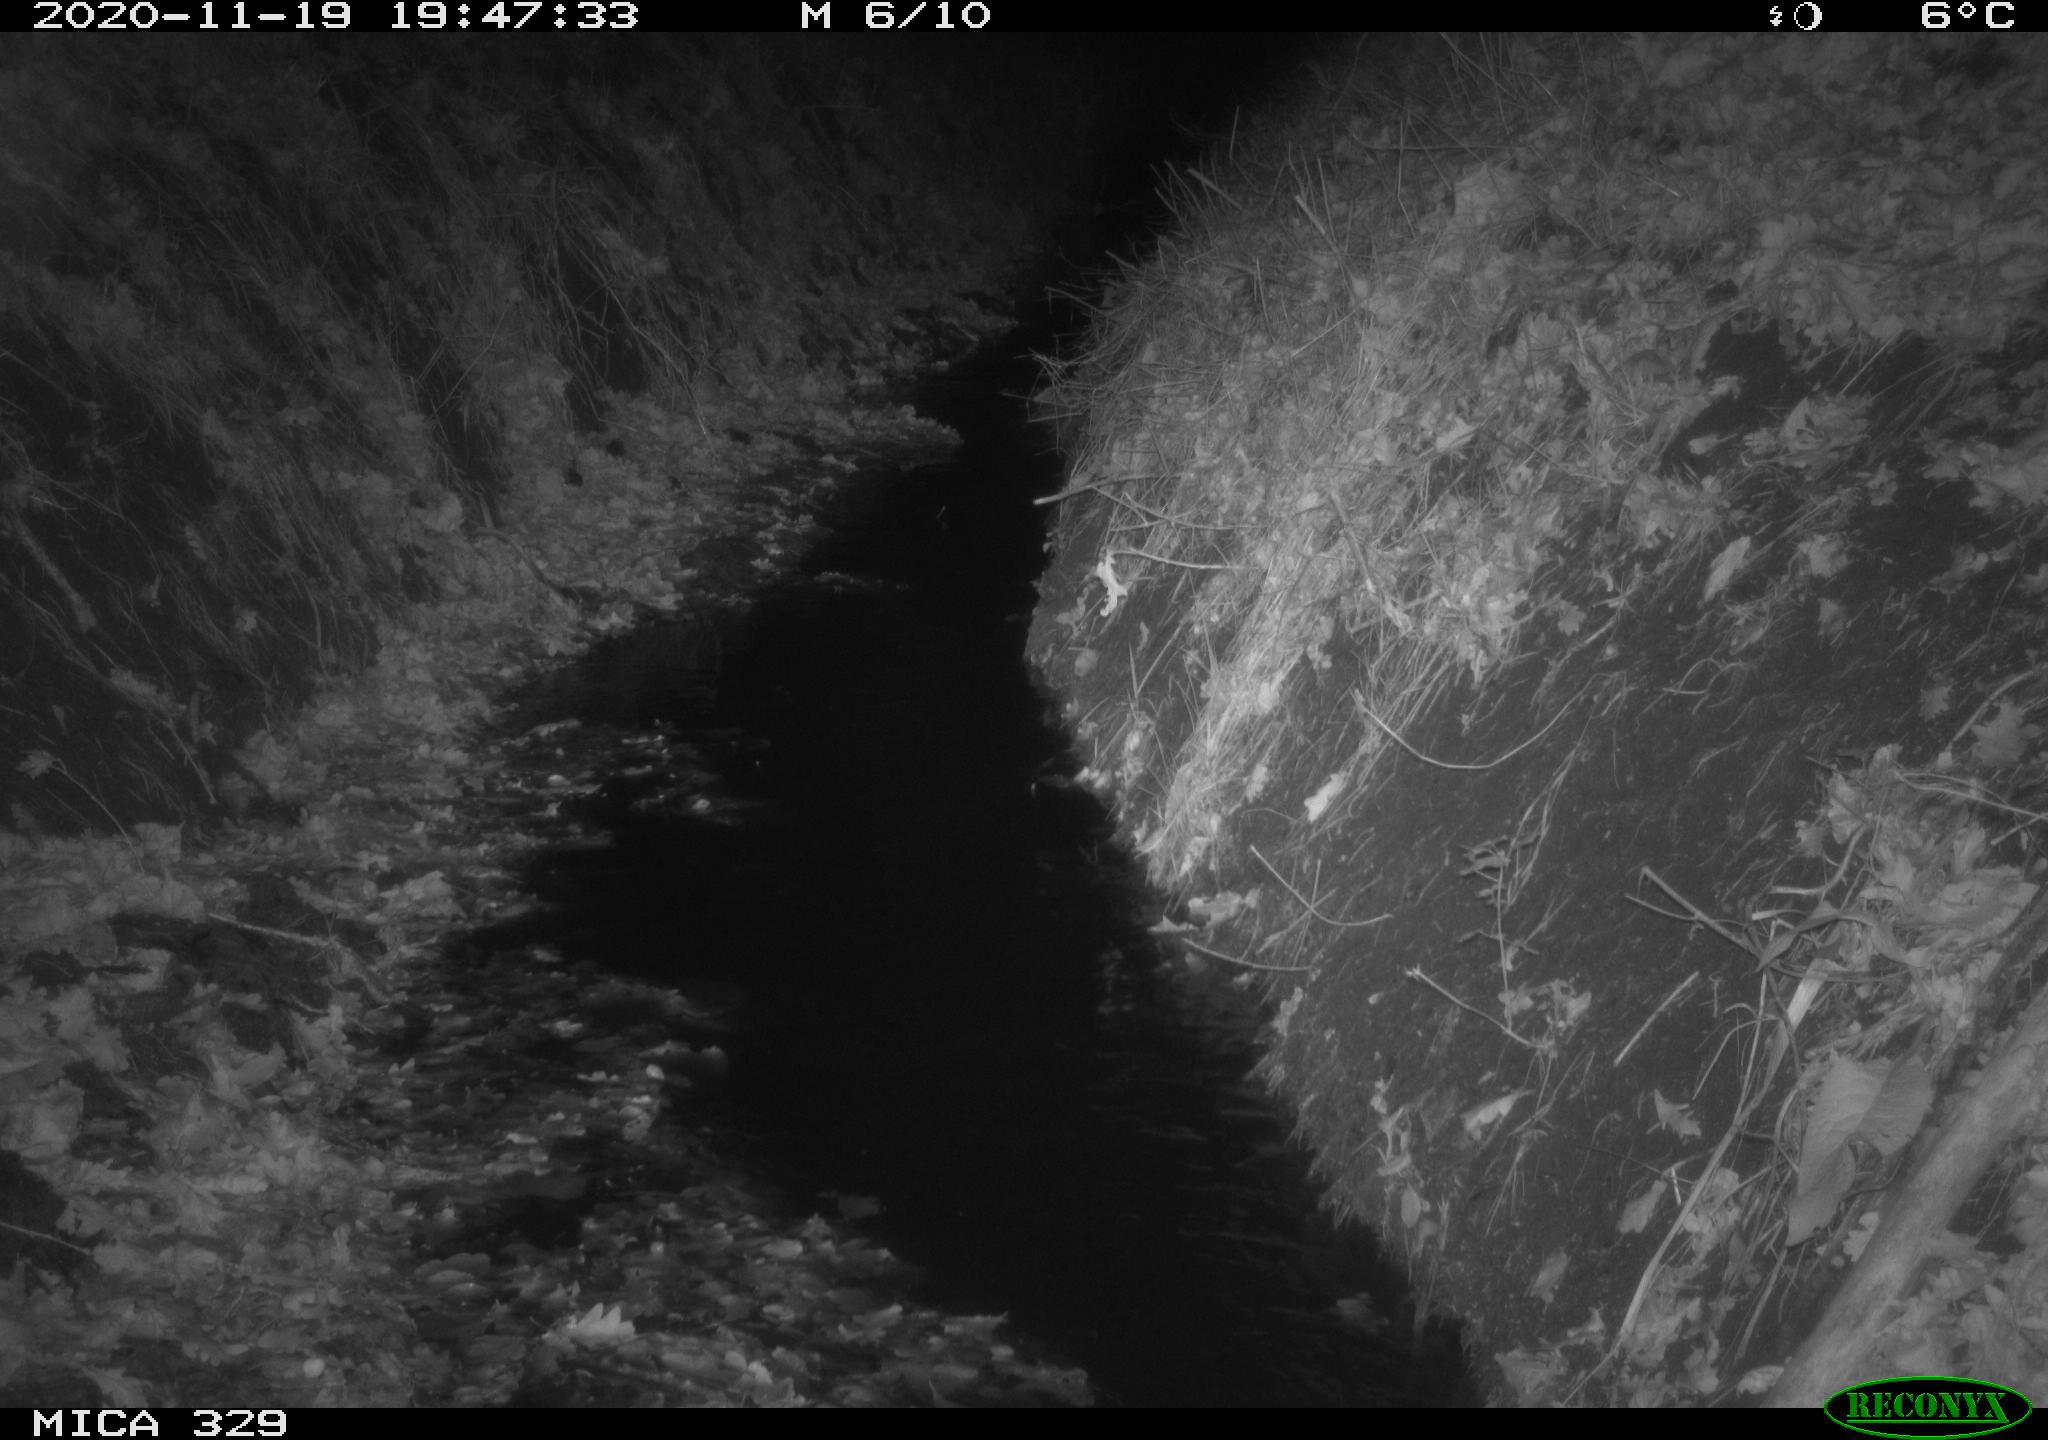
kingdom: Animalia
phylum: Chordata
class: Mammalia
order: Rodentia
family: Cricetidae
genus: Ondatra
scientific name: Ondatra zibethicus
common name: Muskrat
